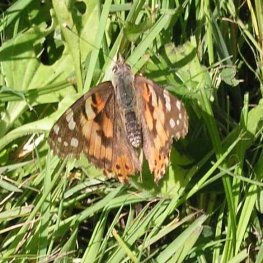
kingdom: Animalia
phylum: Arthropoda
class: Insecta
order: Lepidoptera
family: Nymphalidae
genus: Vanessa
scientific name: Vanessa cardui
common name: Painted Lady
